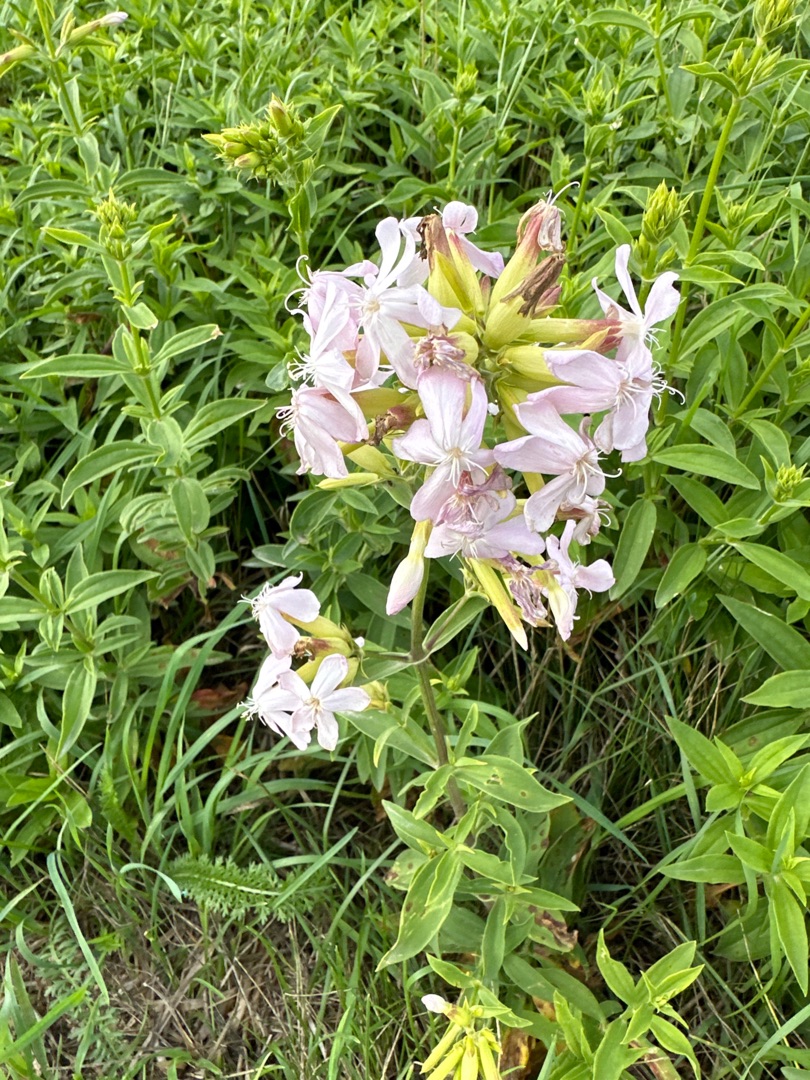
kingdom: Plantae
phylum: Tracheophyta
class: Magnoliopsida
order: Caryophyllales
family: Caryophyllaceae
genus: Saponaria
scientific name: Saponaria officinalis
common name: Sæbeurt
